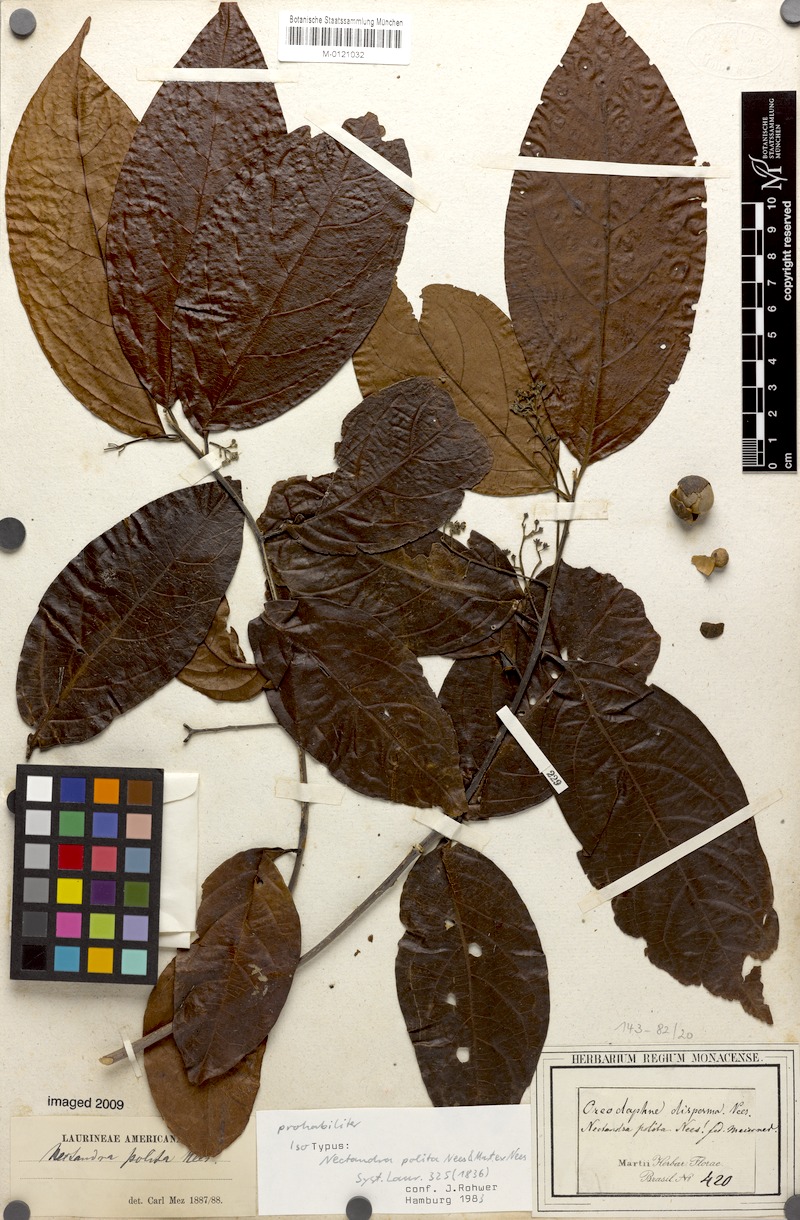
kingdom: Plantae
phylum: Tracheophyta
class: Magnoliopsida
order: Laurales
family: Lauraceae
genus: Damburneya
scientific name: Damburneya purpurea
